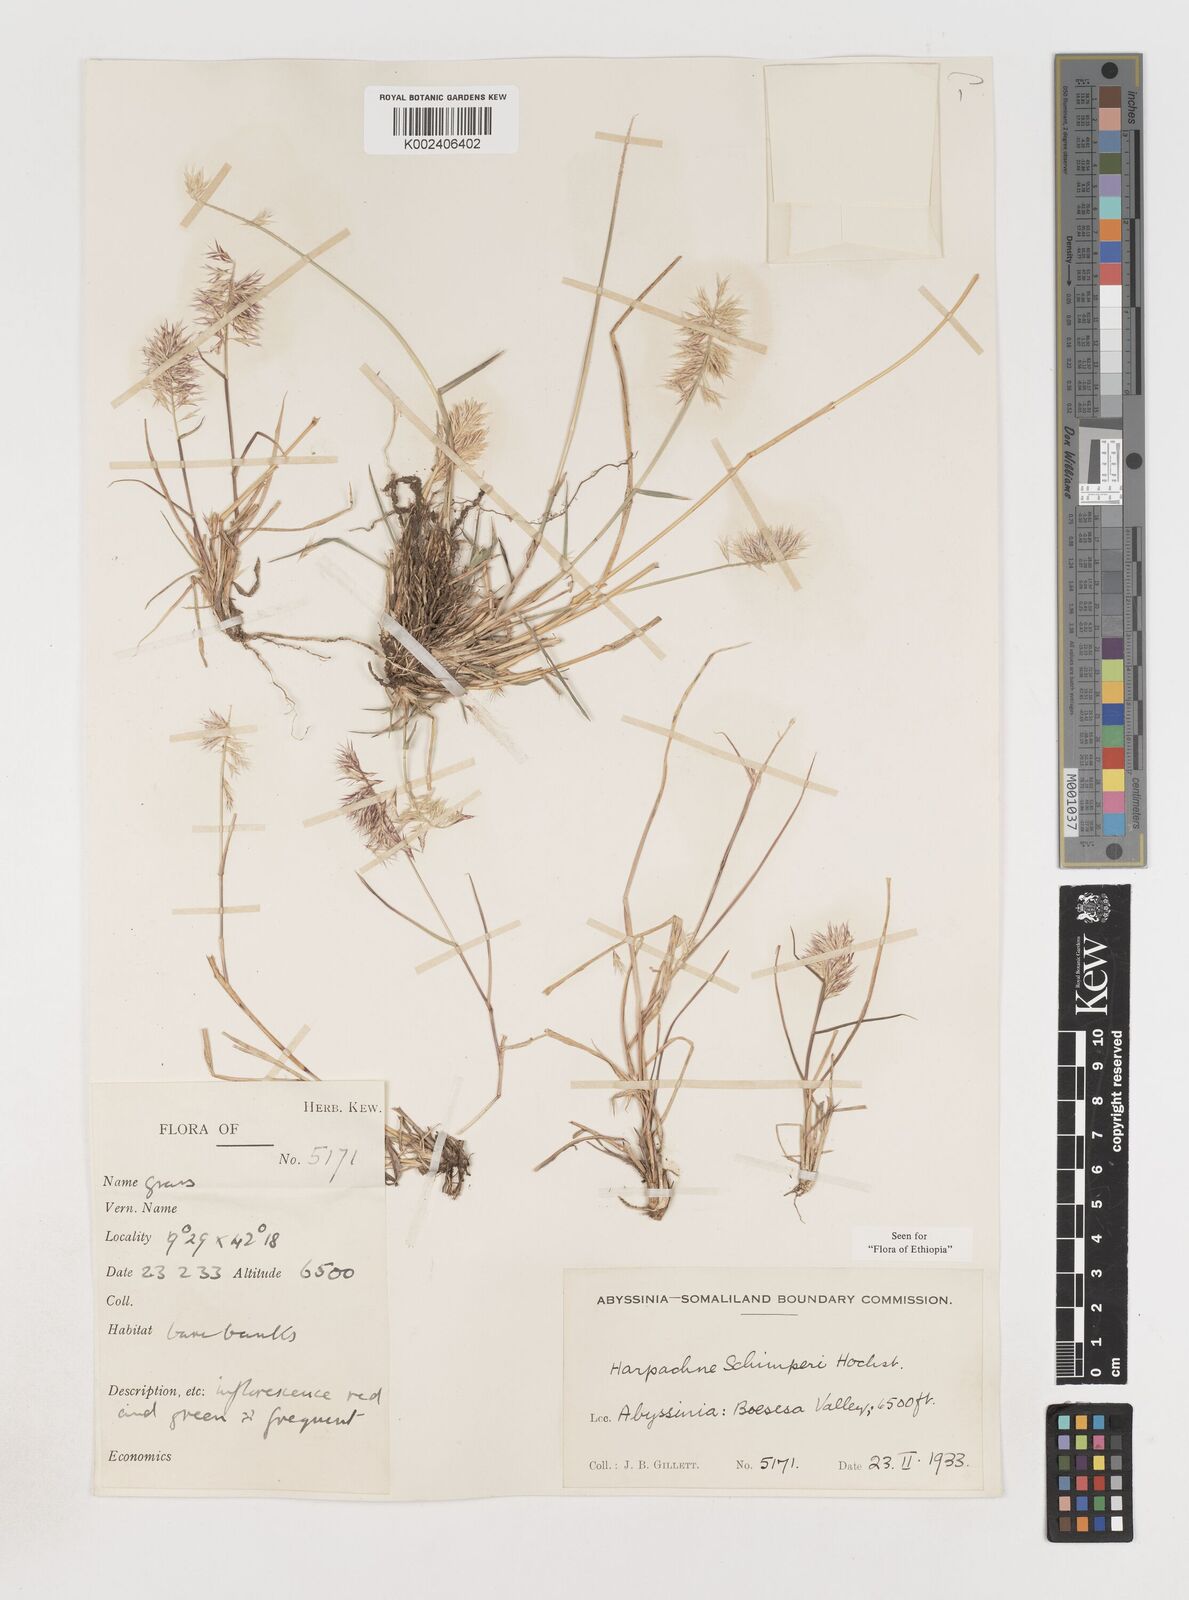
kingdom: Plantae
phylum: Tracheophyta
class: Liliopsida
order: Poales
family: Poaceae
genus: Harpachne
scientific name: Harpachne schimperi
